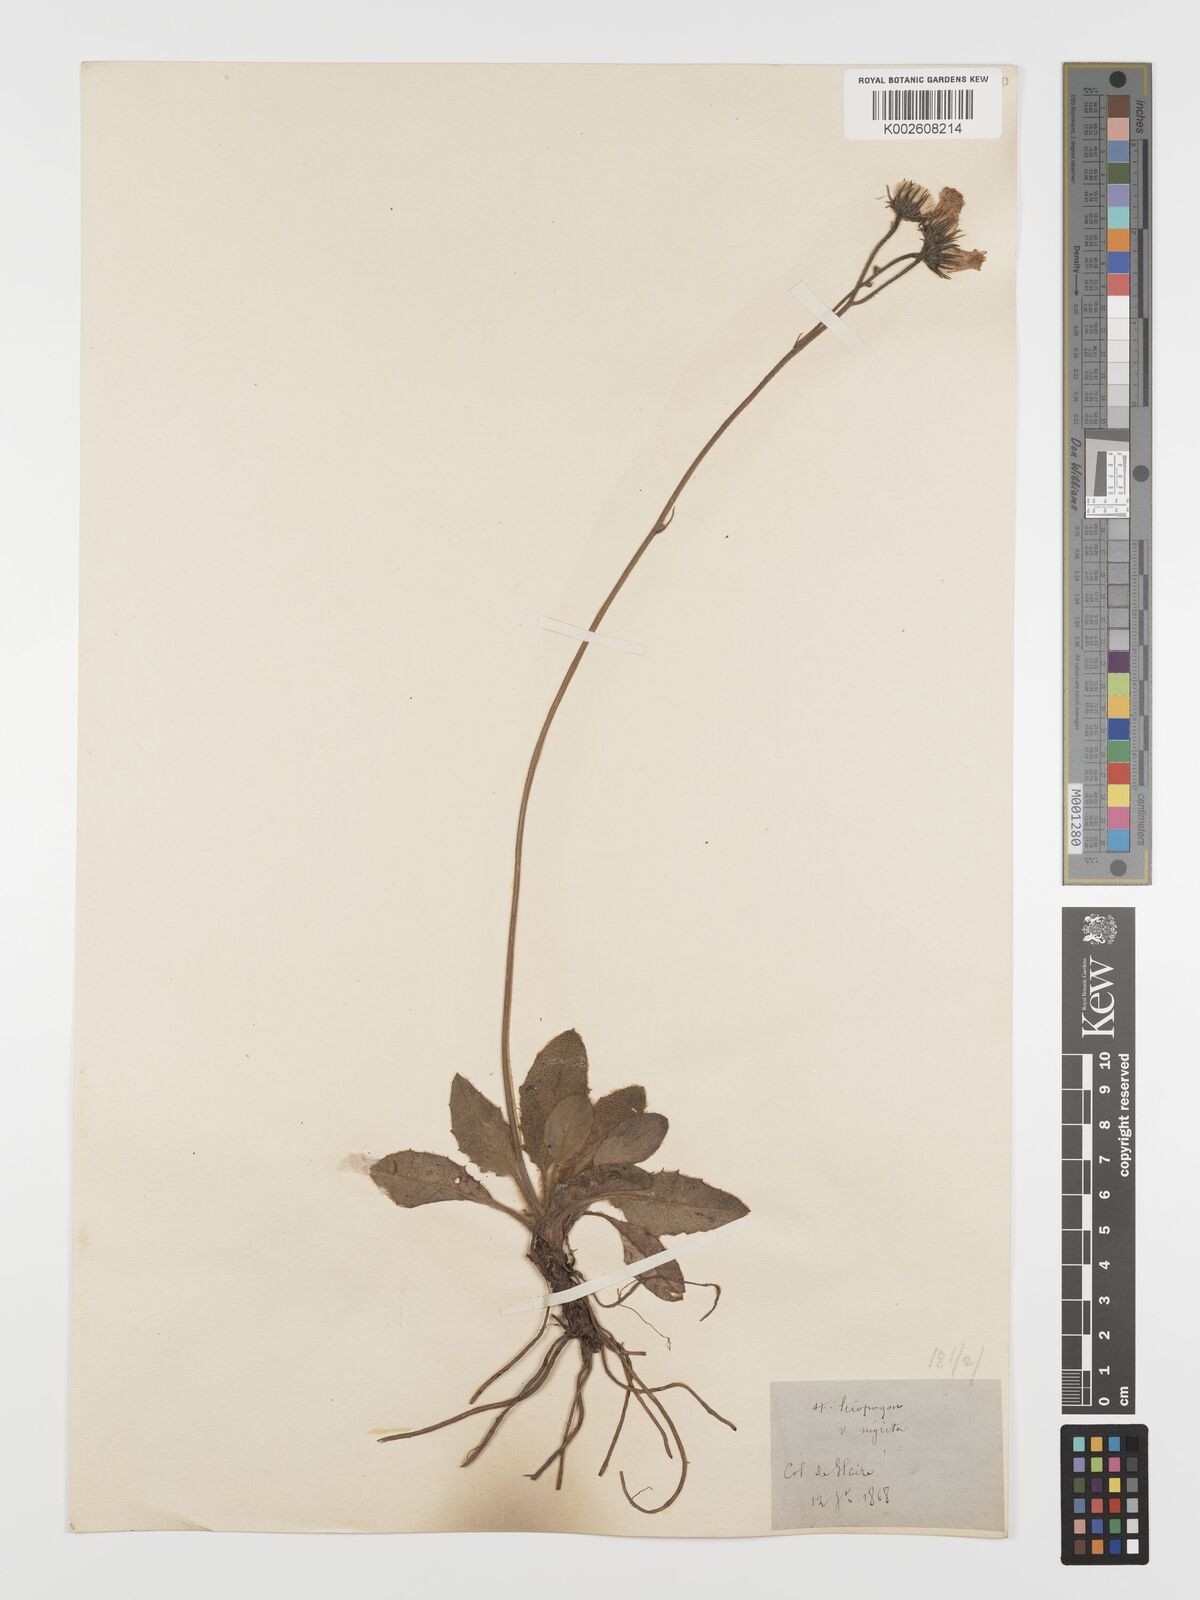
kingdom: Plantae
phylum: Tracheophyta
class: Magnoliopsida
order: Asterales
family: Asteraceae
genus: Hieracium
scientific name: Hieracium
